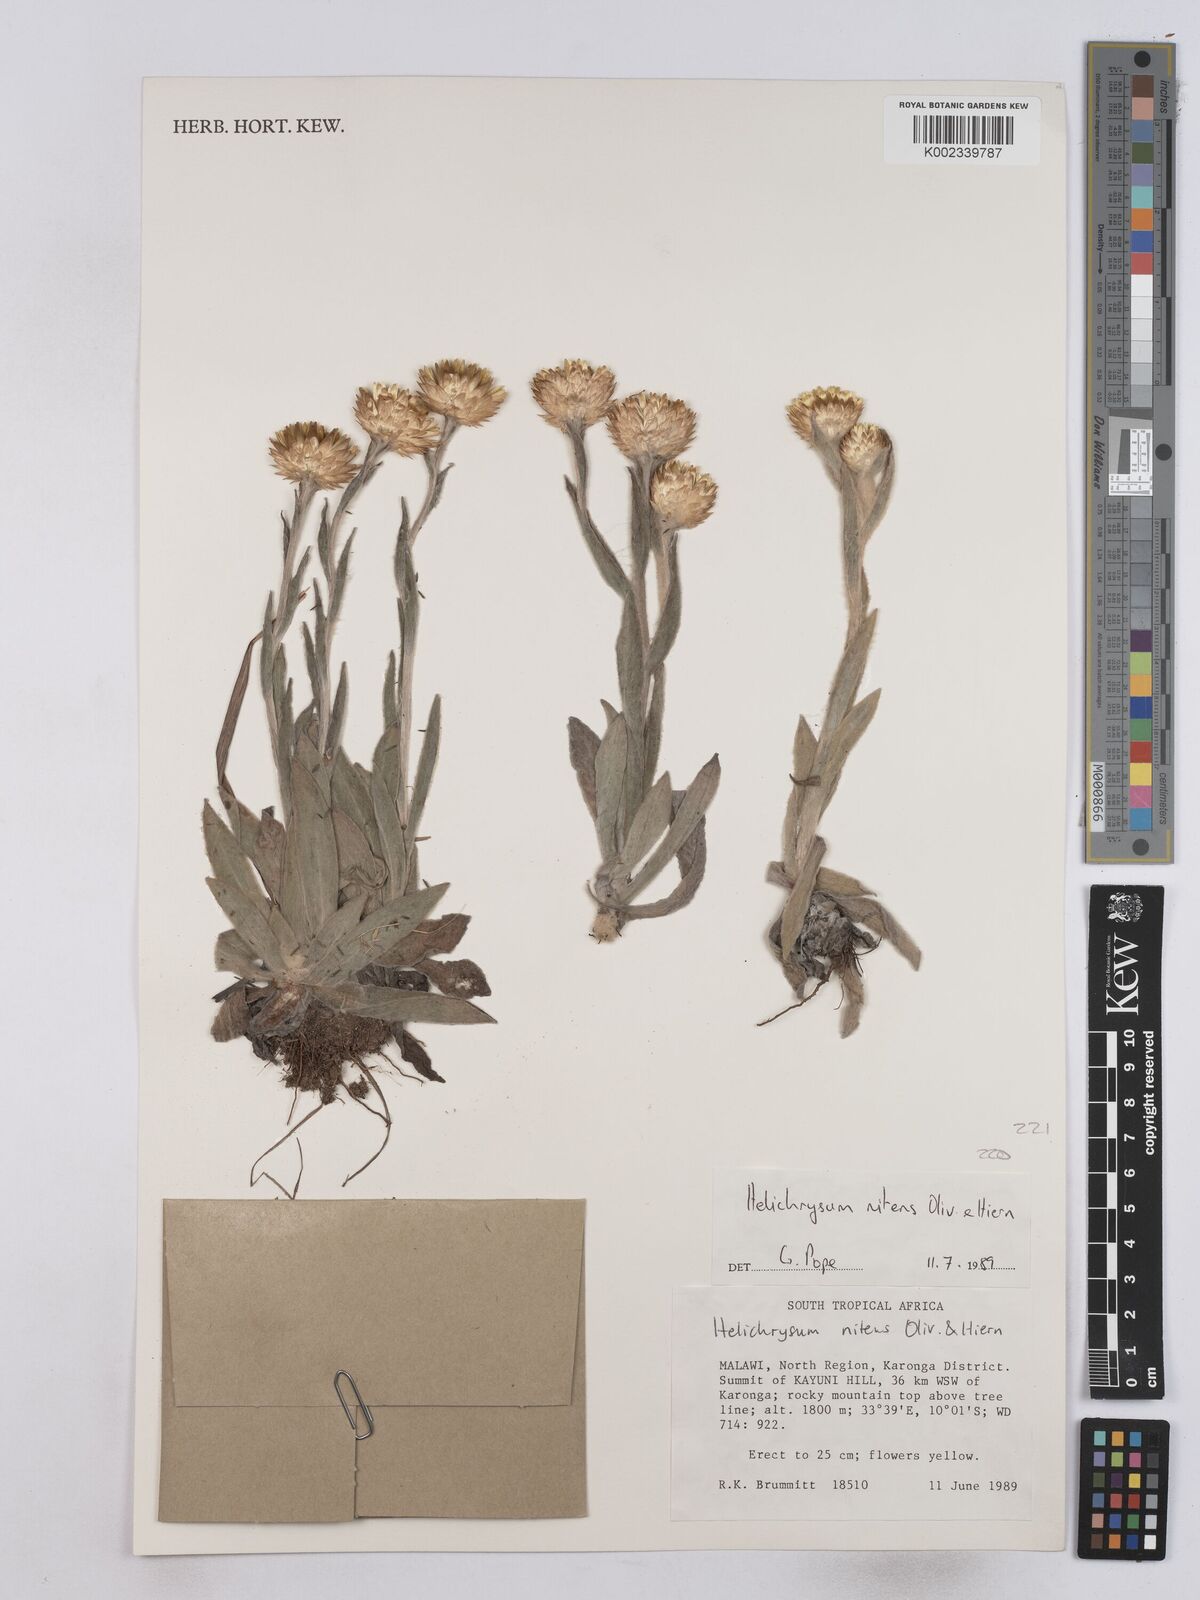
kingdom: Plantae
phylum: Tracheophyta
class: Magnoliopsida
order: Asterales
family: Asteraceae
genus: Helichrysum
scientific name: Helichrysum nitens
